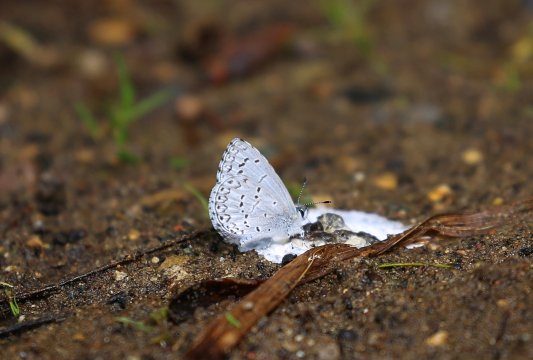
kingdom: Animalia
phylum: Arthropoda
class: Insecta
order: Lepidoptera
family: Lycaenidae
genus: Celastrina
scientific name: Celastrina ladon
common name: Spring Azure
